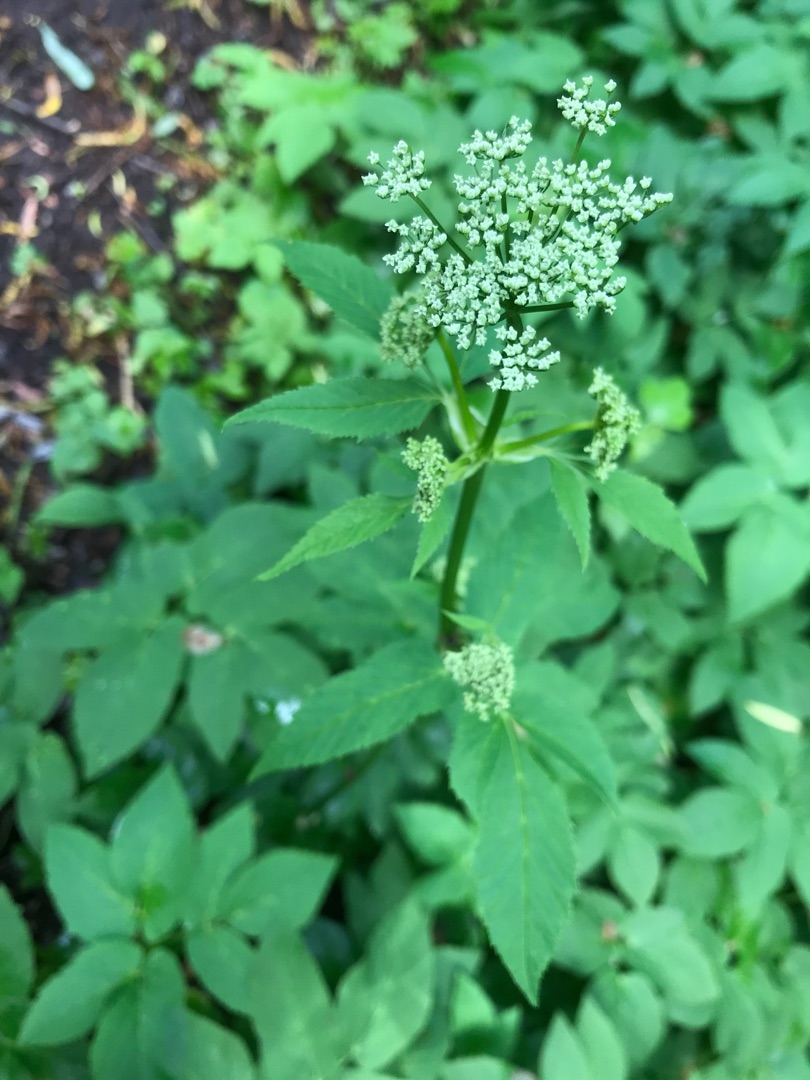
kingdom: Plantae
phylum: Tracheophyta
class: Magnoliopsida
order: Apiales
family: Apiaceae
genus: Aegopodium
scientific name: Aegopodium podagraria
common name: Skvalderkål
